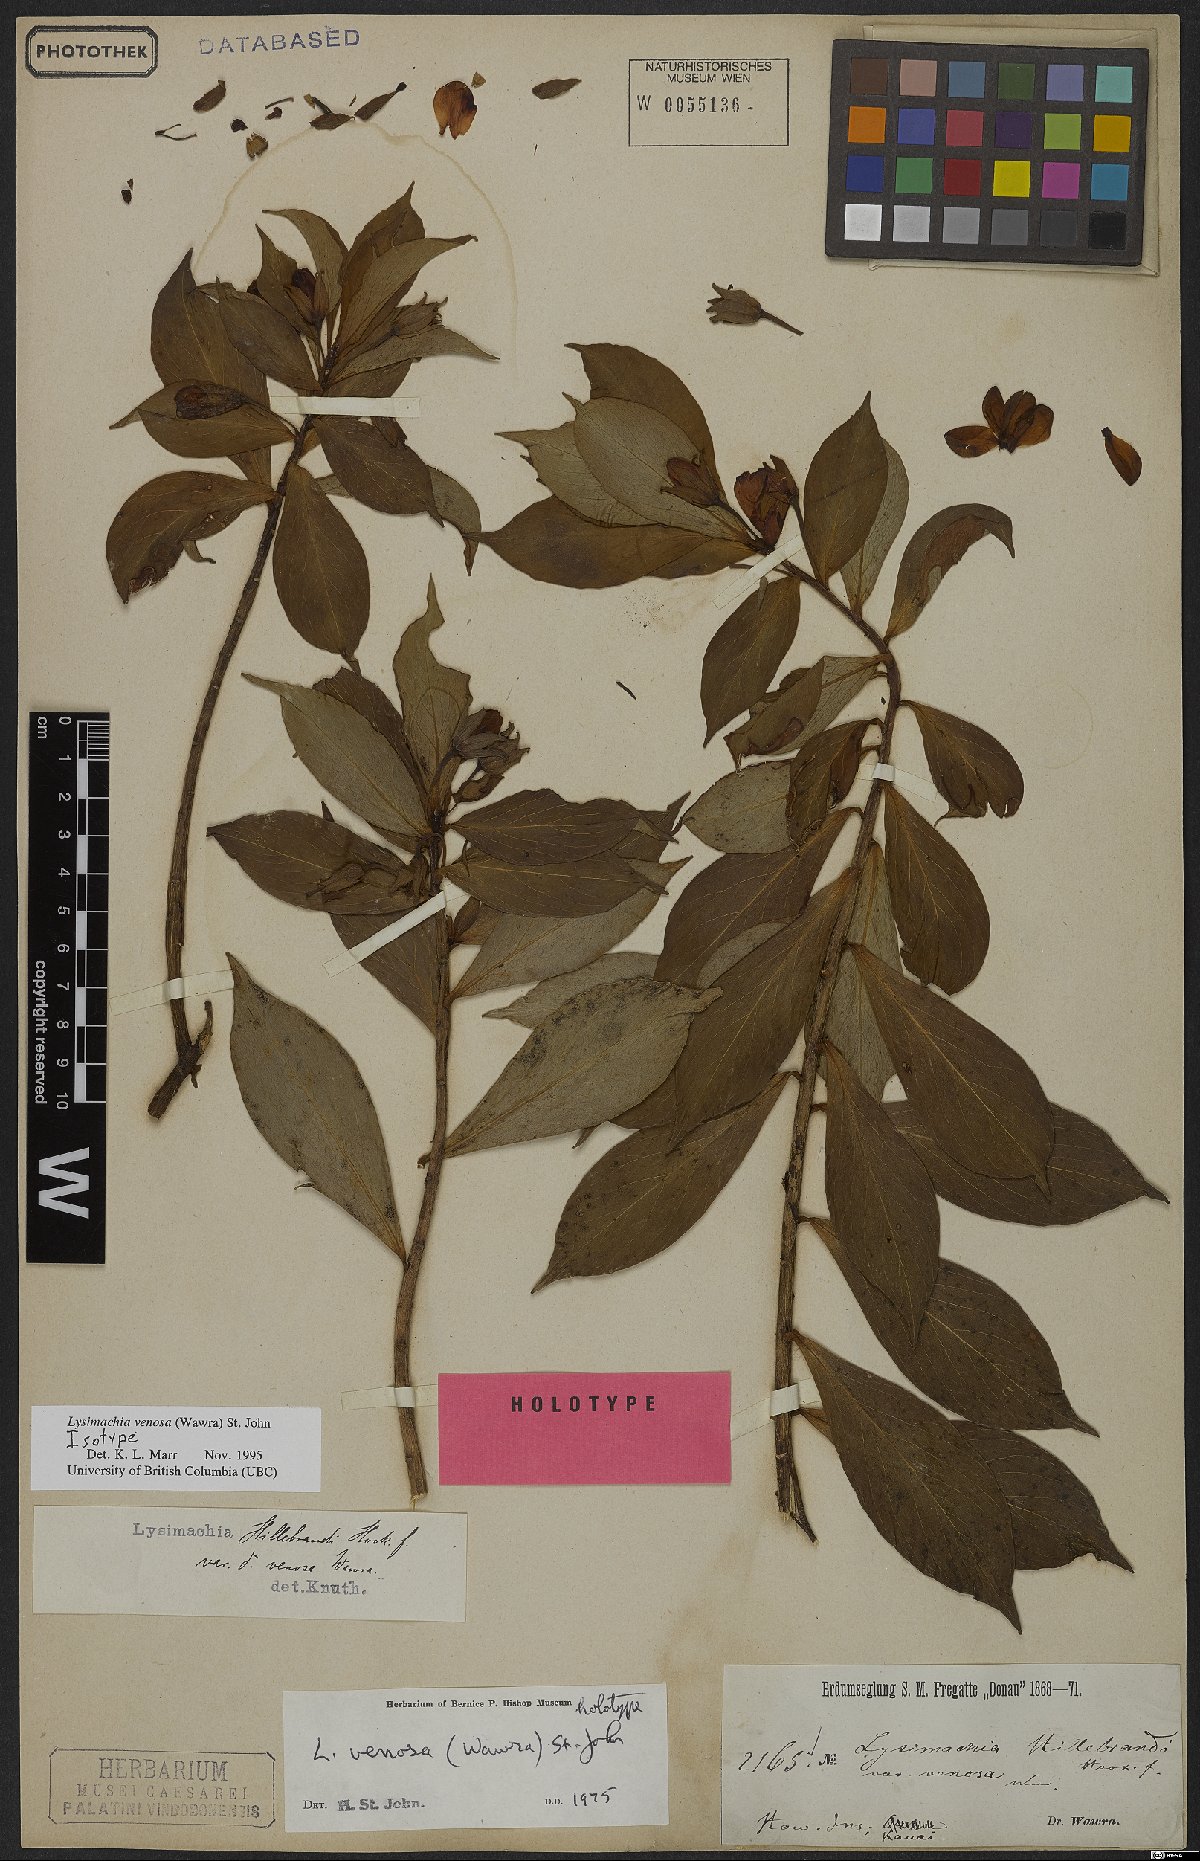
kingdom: Plantae
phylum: Tracheophyta
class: Magnoliopsida
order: Ericales
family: Primulaceae
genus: Lysimachia
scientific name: Lysimachia venosa
